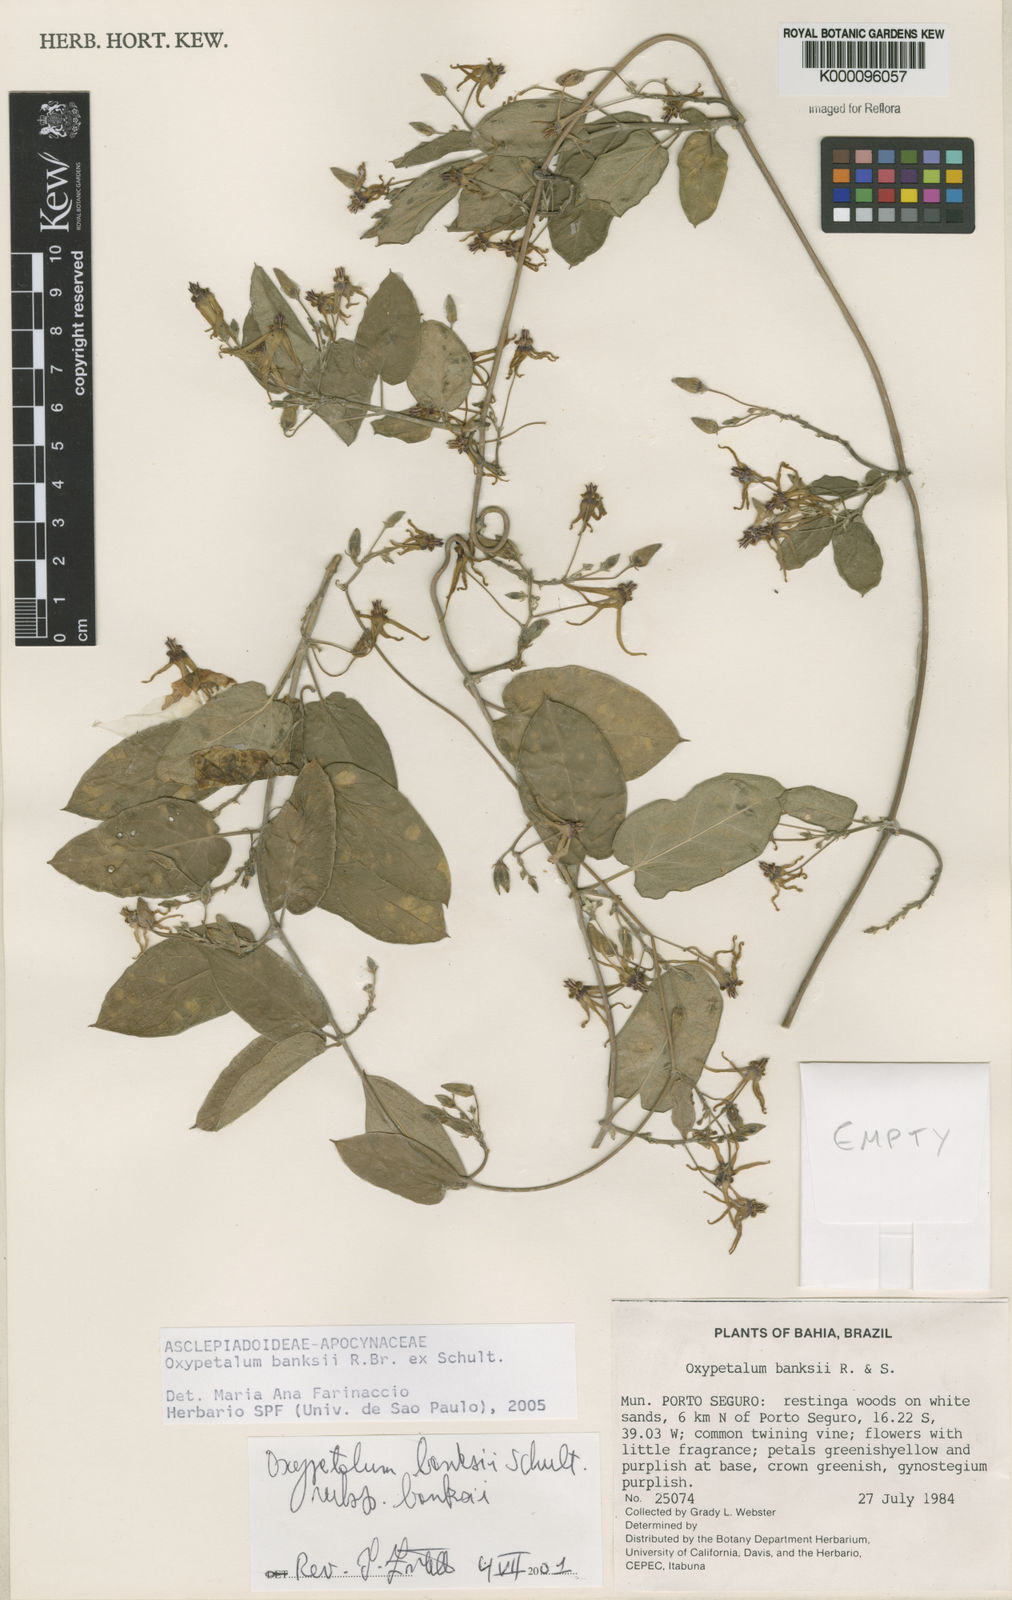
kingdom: Plantae
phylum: Tracheophyta
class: Magnoliopsida
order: Gentianales
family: Apocynaceae
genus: Oxypetalum
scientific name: Oxypetalum banksii
